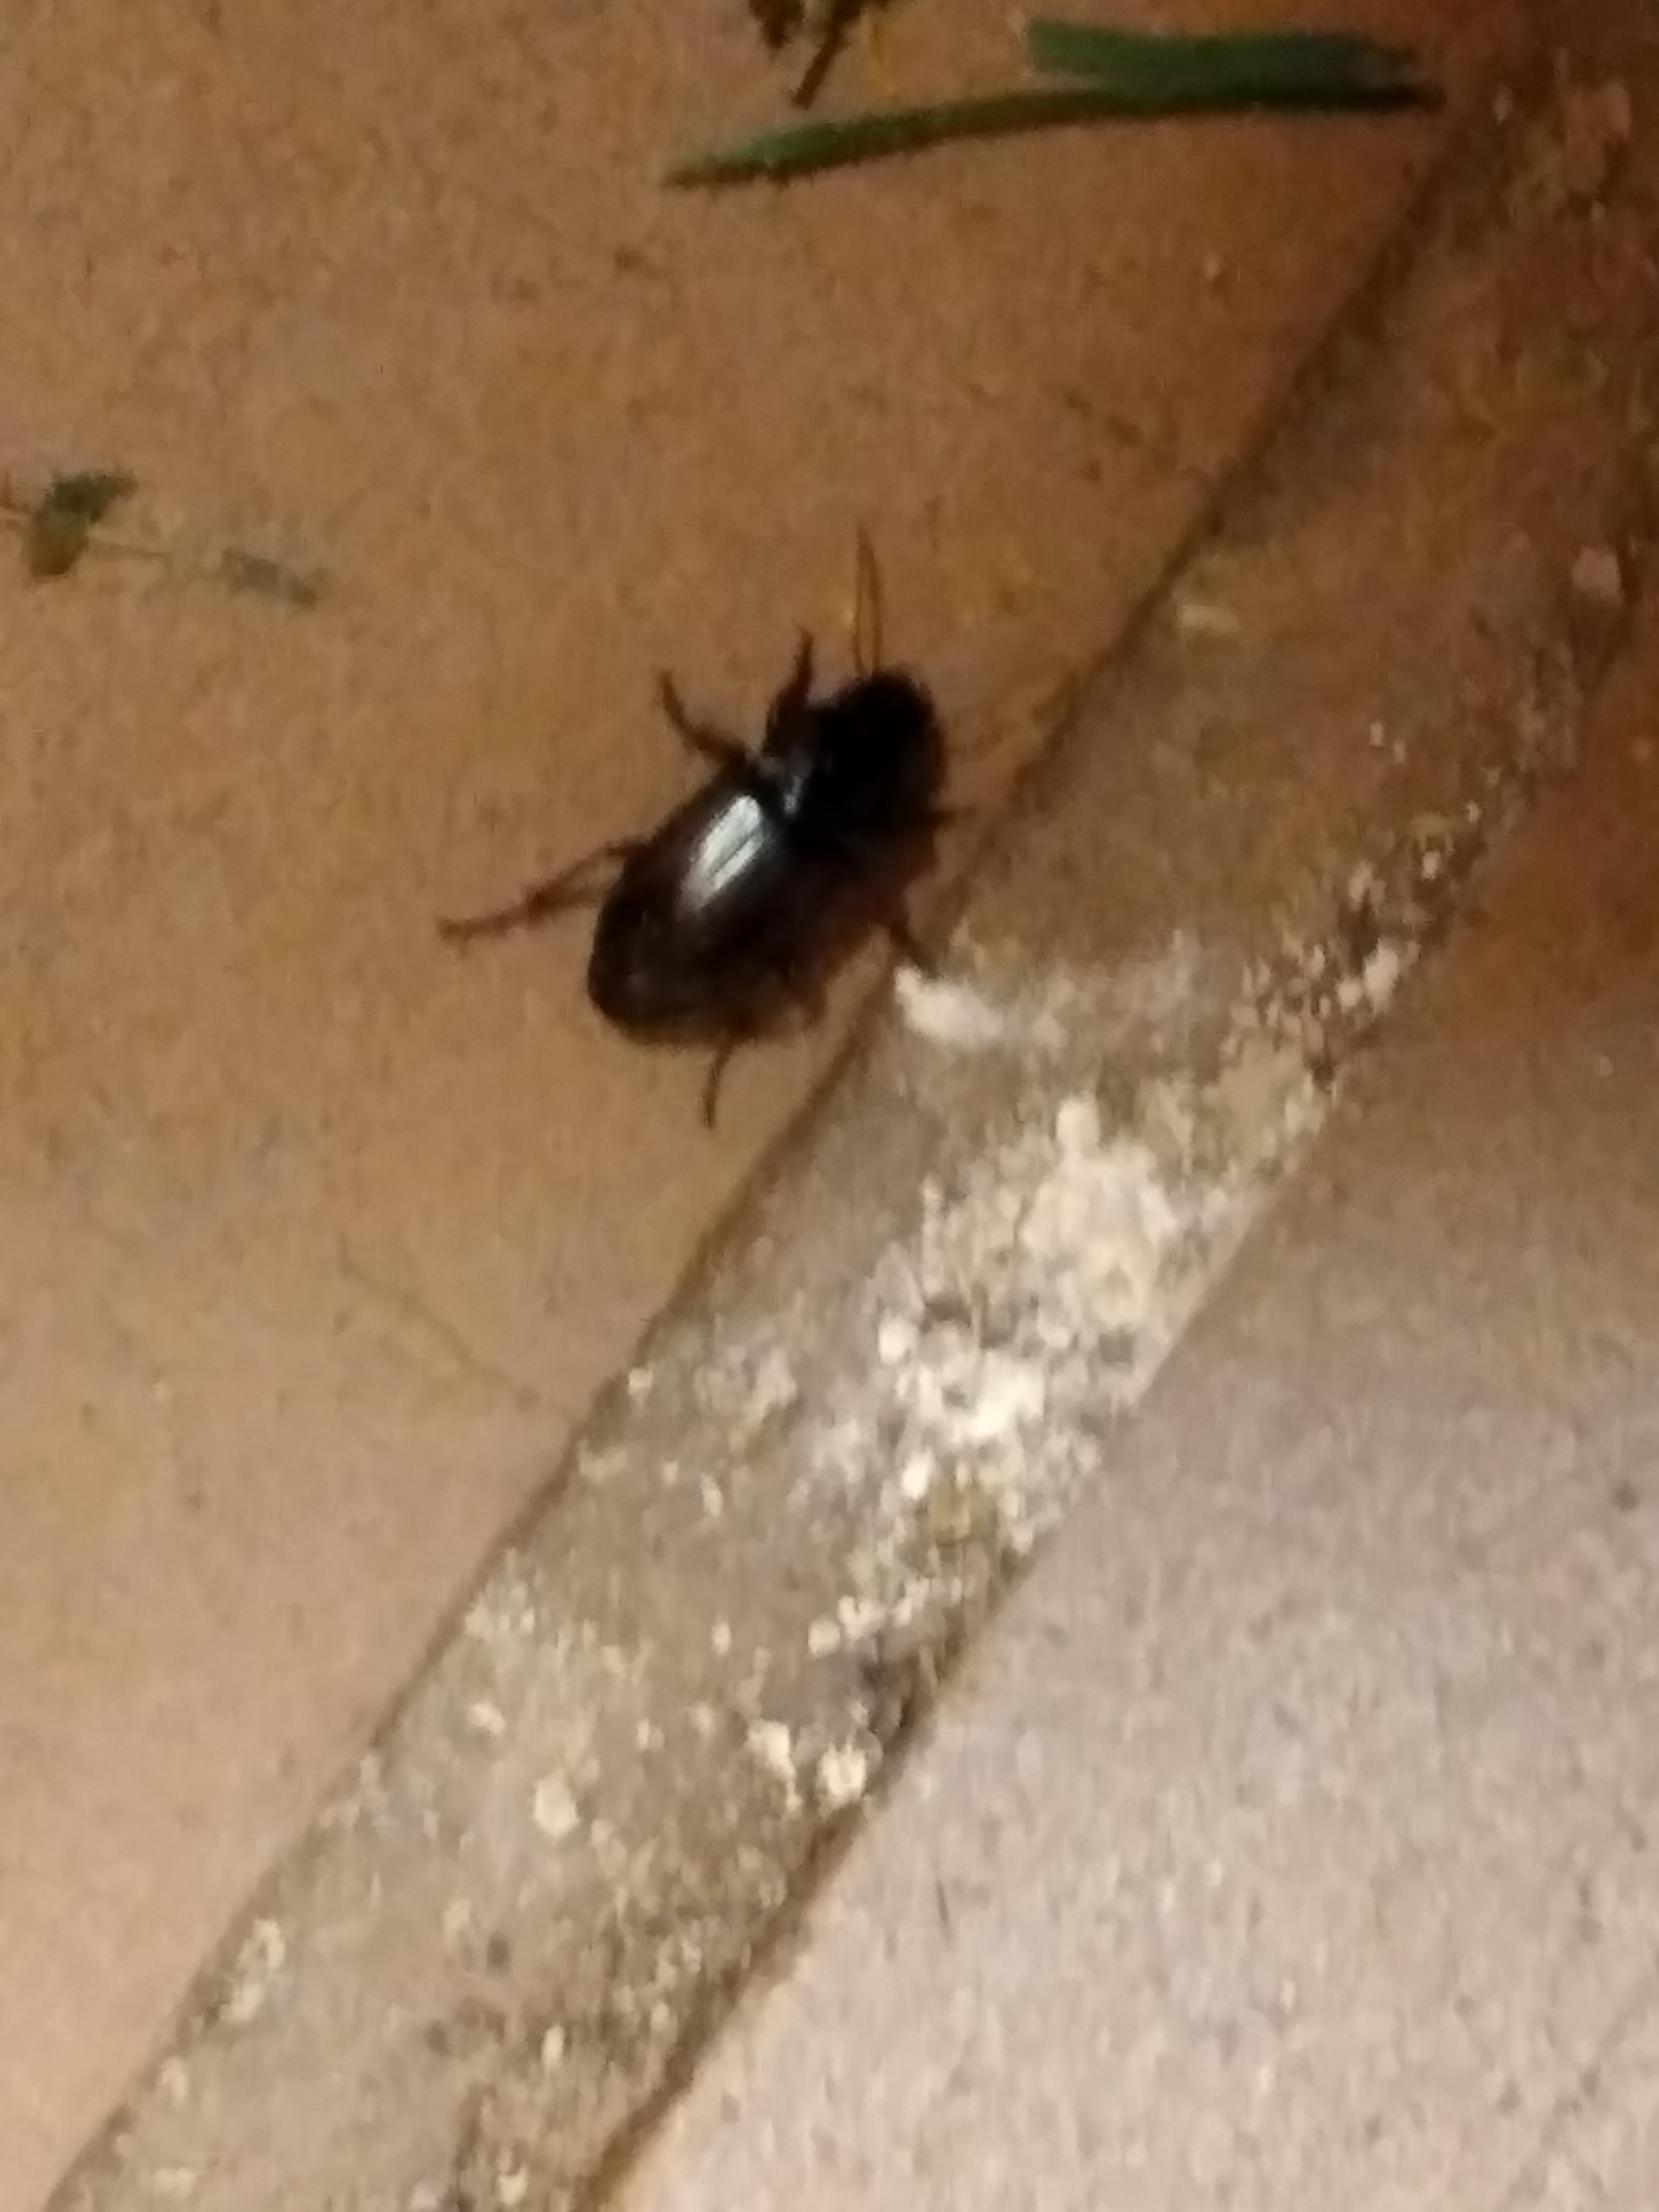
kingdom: Animalia
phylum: Arthropoda
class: Insecta
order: Coleoptera
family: Carabidae
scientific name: Carabidae
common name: Løbebiller
